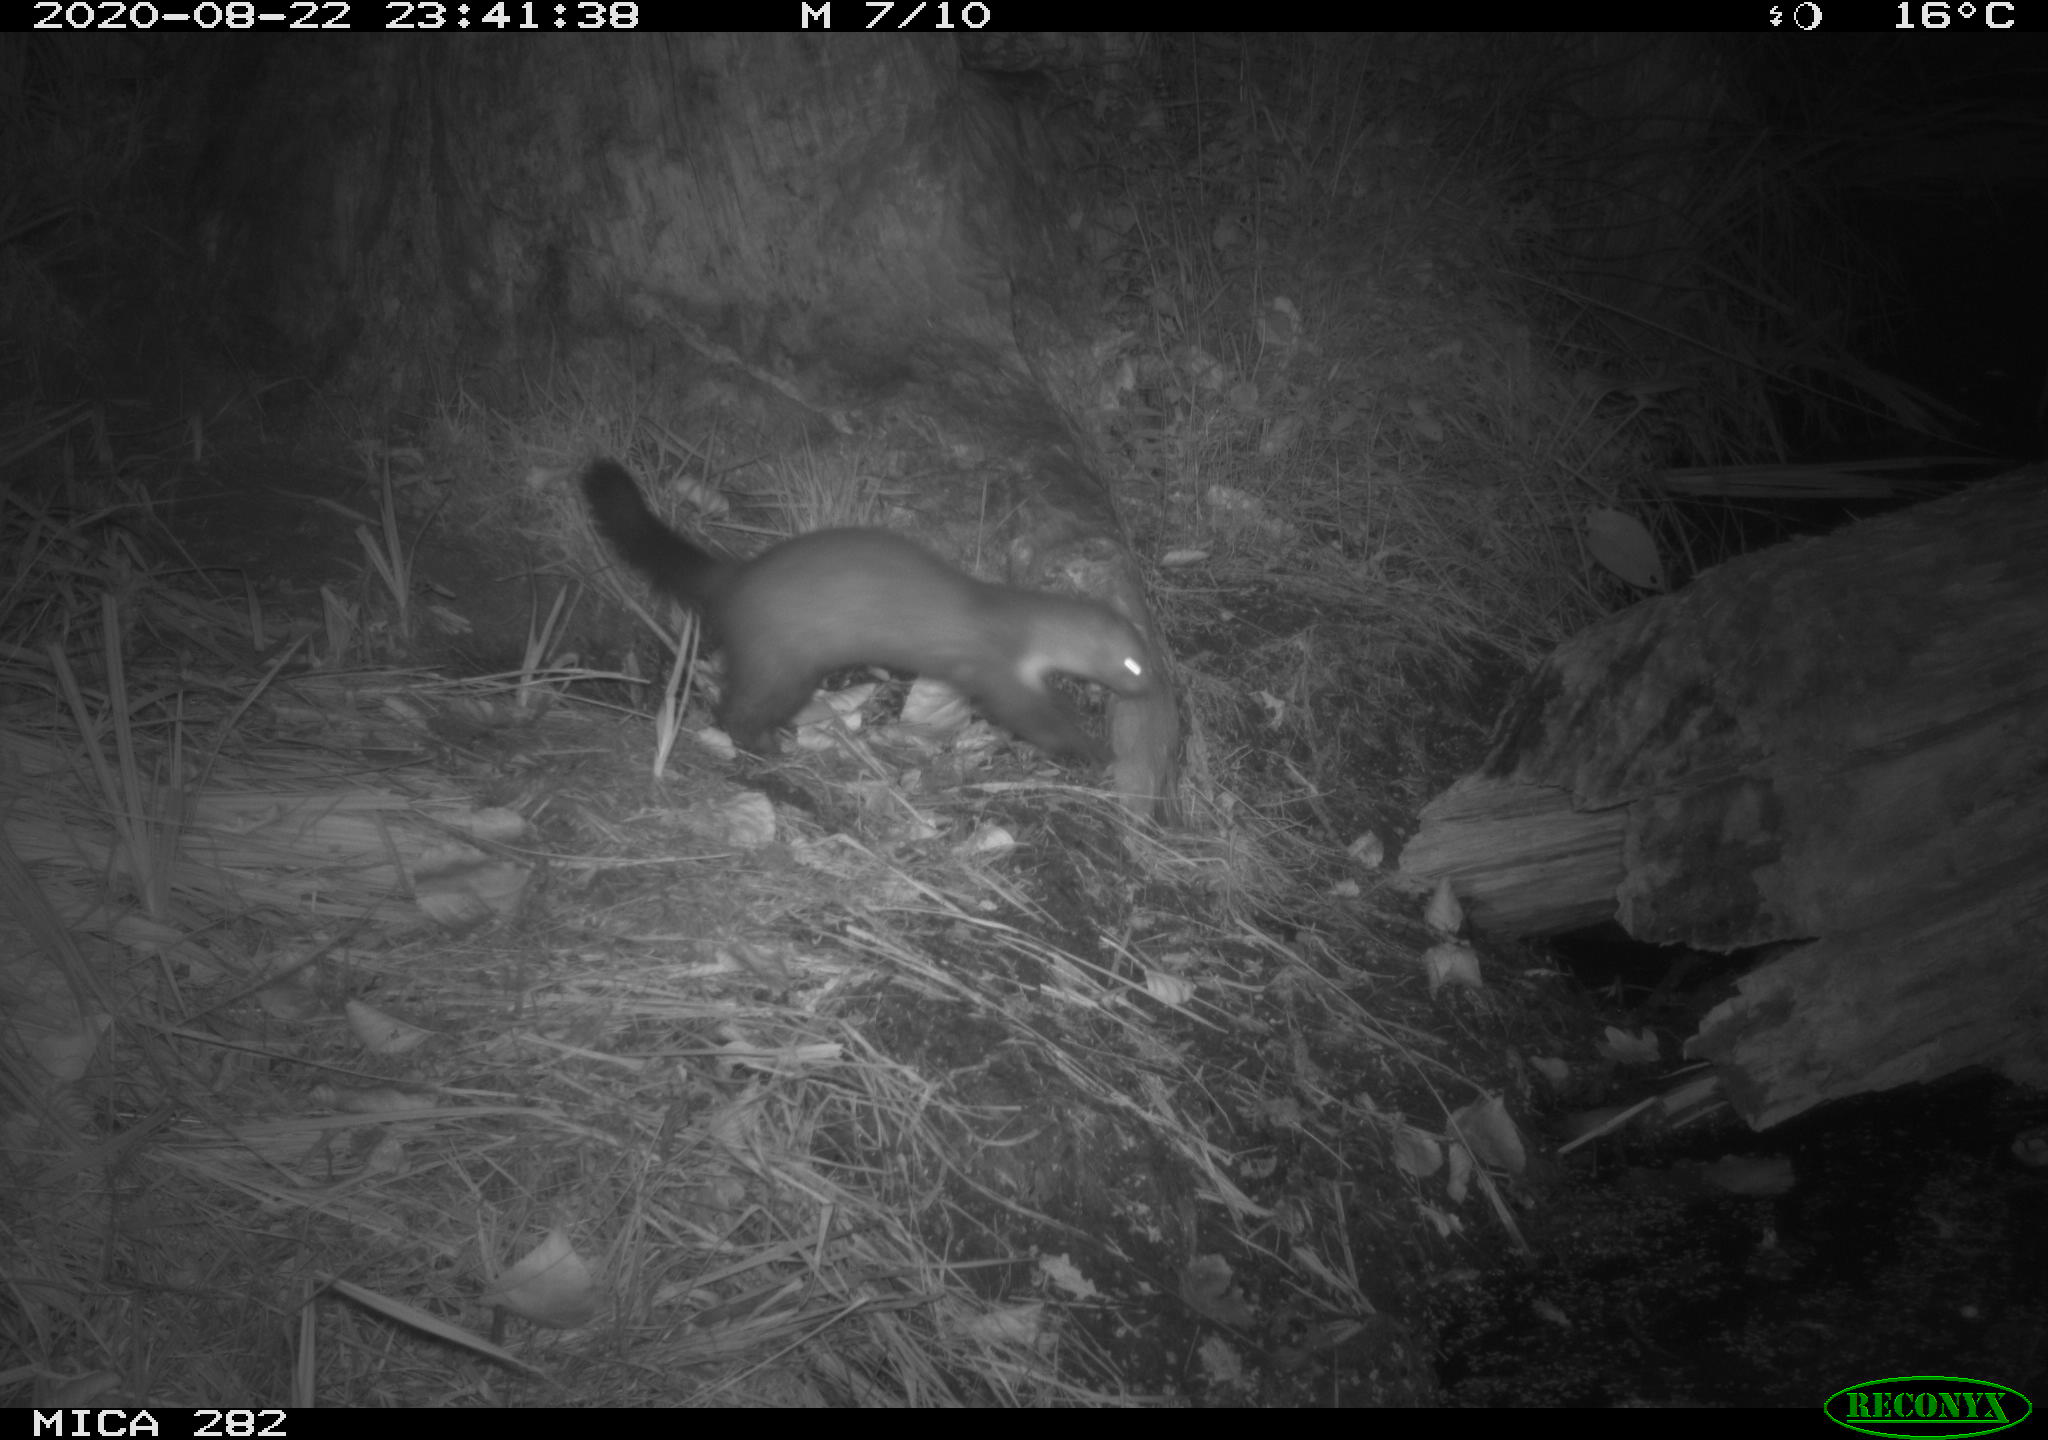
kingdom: Animalia
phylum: Chordata
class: Mammalia
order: Carnivora
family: Mustelidae
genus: Martes
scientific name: Martes foina
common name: Beech marten
